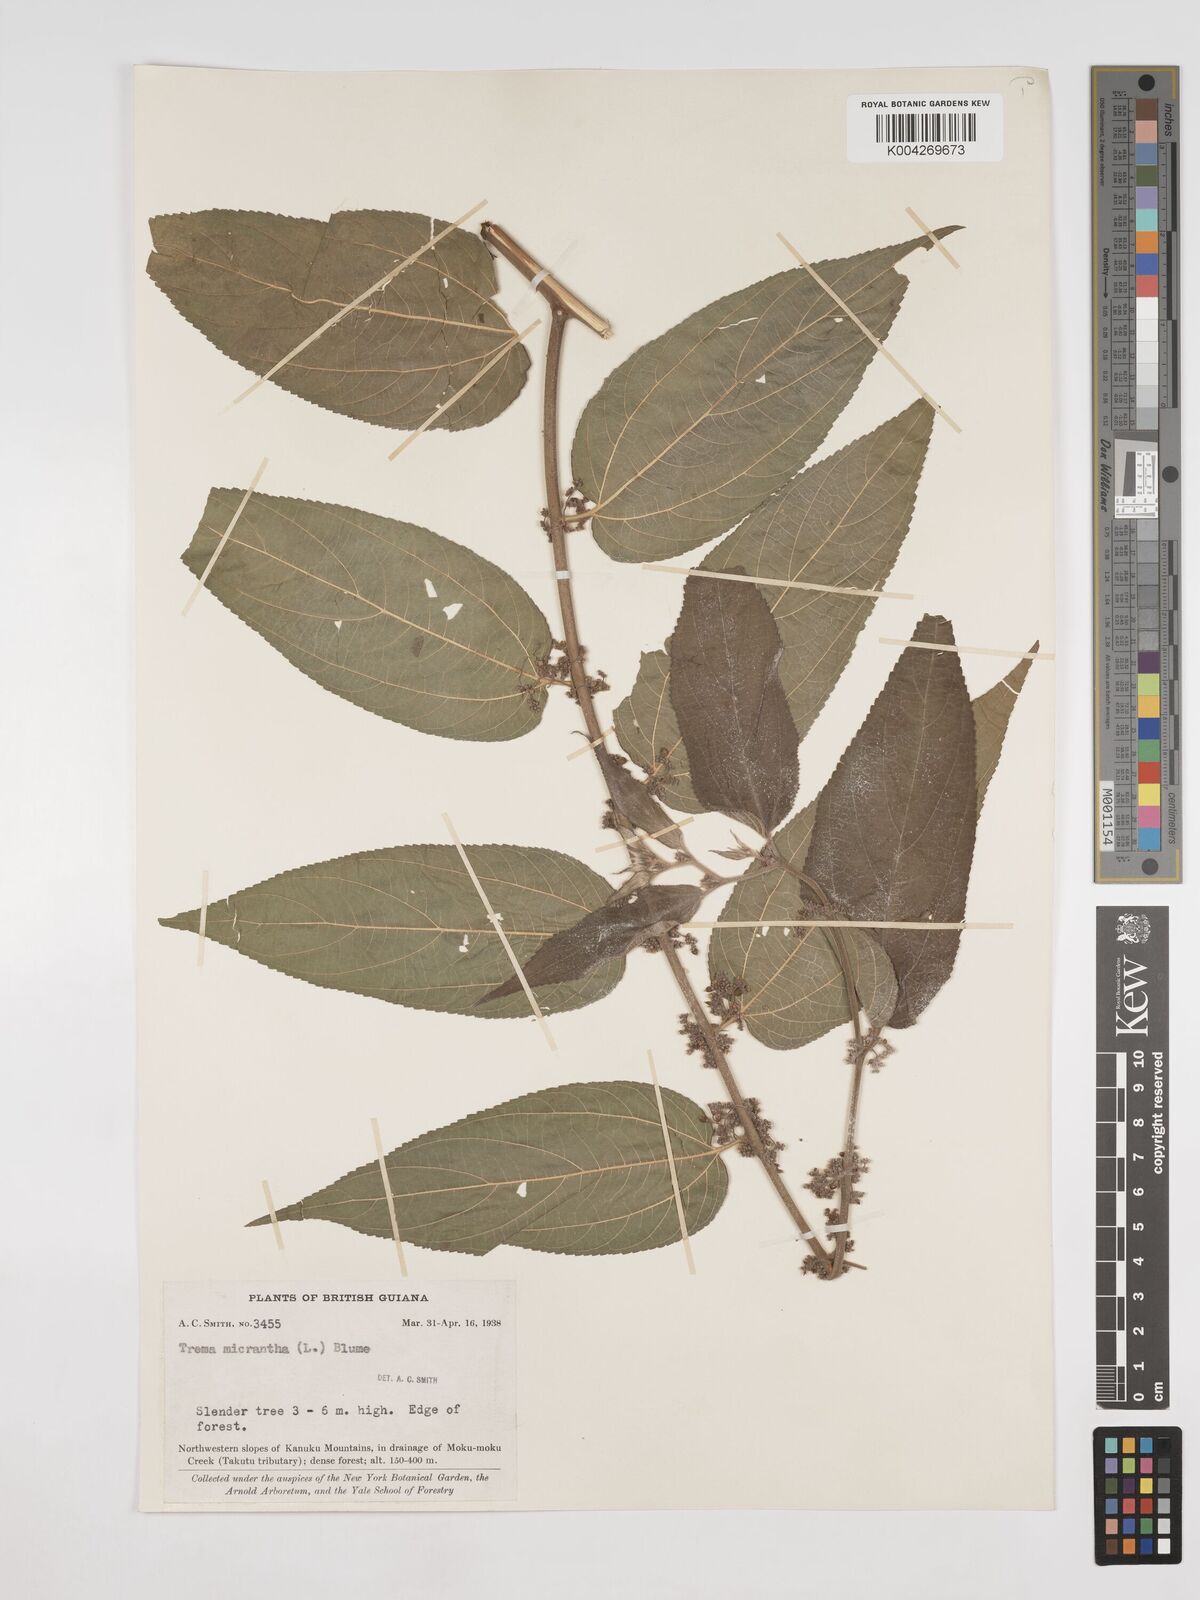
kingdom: Plantae
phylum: Tracheophyta
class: Magnoliopsida
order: Rosales
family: Cannabaceae
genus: Trema
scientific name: Trema micranthum
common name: Jamaican nettletree
